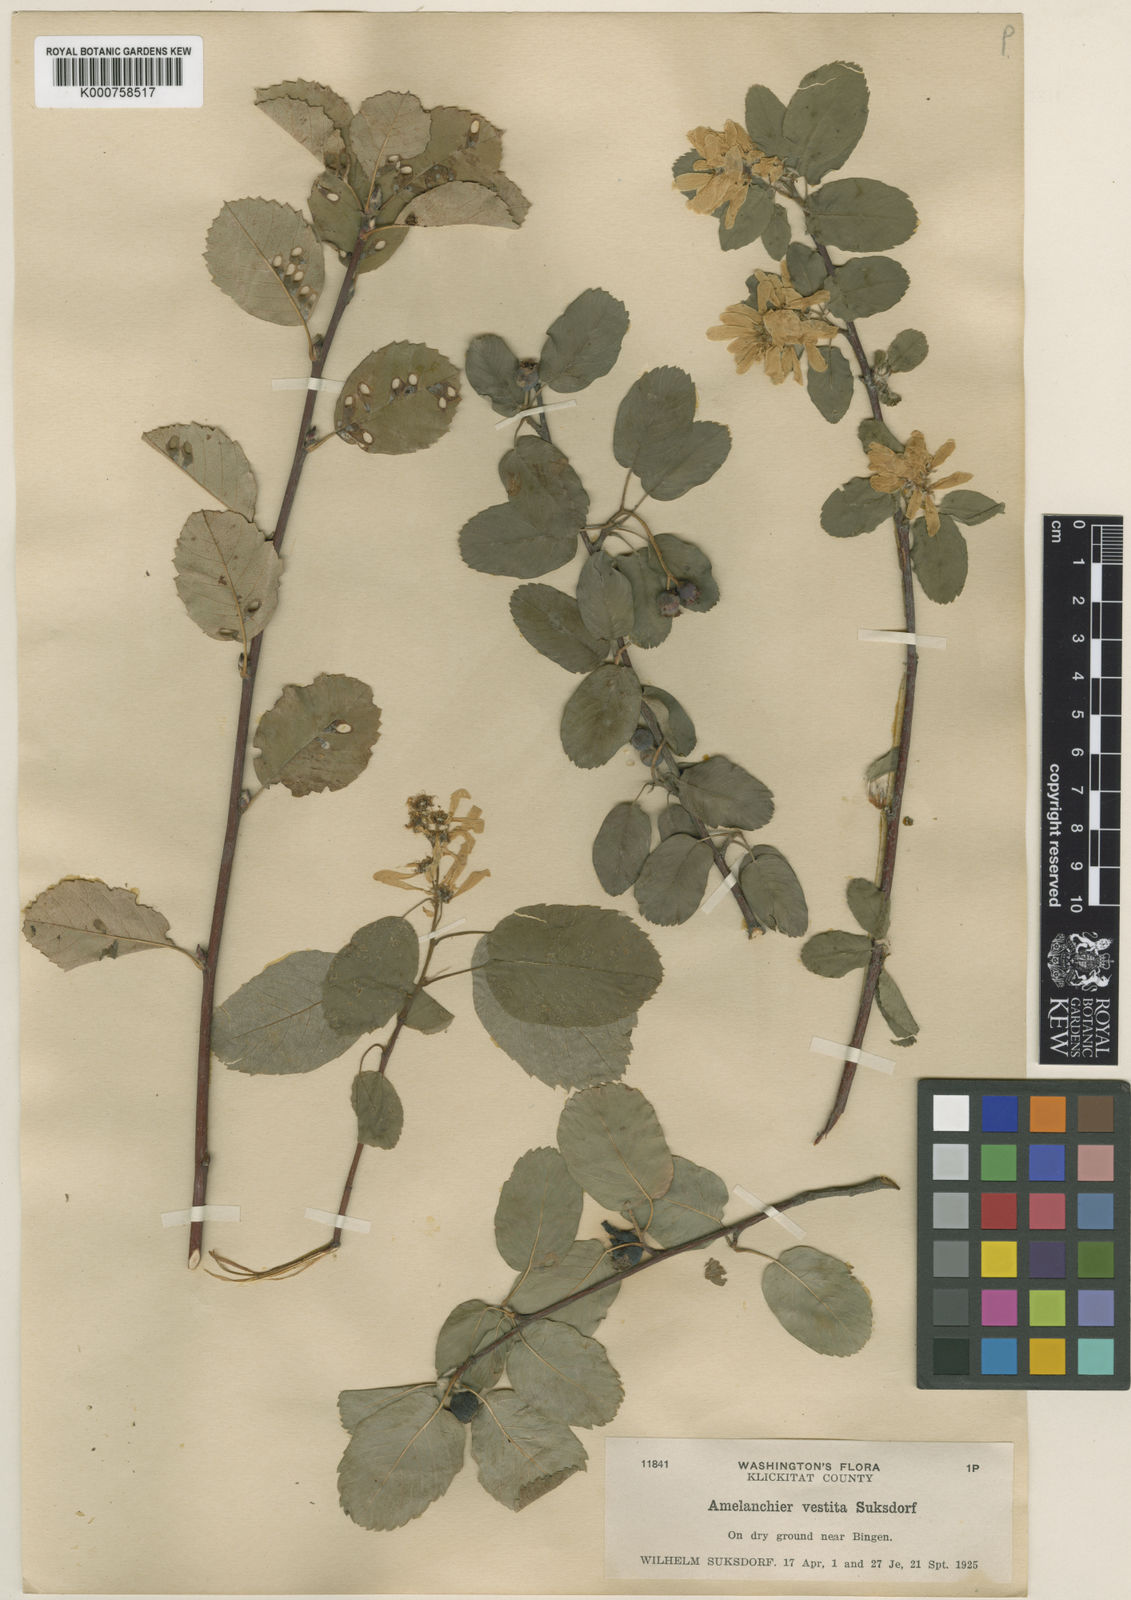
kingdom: Plantae
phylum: Tracheophyta
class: Magnoliopsida
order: Rosales
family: Rosaceae
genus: Amelanchier
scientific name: Amelanchier alnifolia
